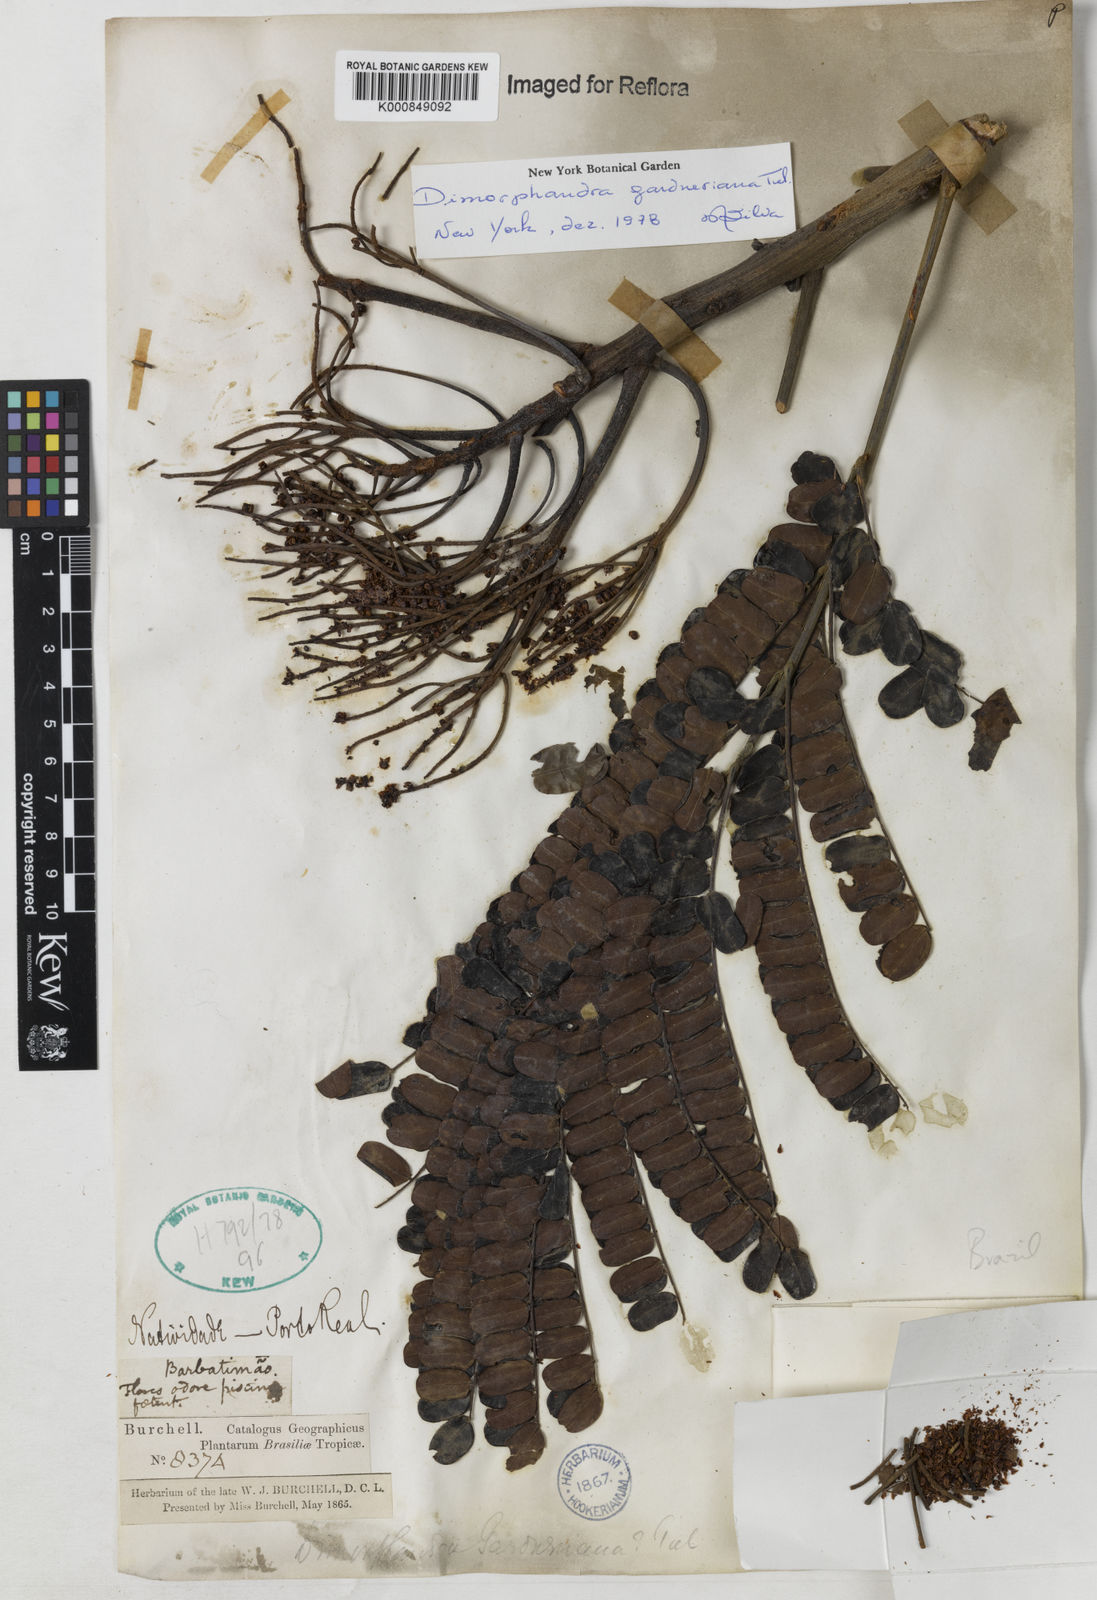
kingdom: Plantae
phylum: Tracheophyta
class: Magnoliopsida
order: Fabales
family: Fabaceae
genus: Dimorphandra
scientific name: Dimorphandra gardneriana
